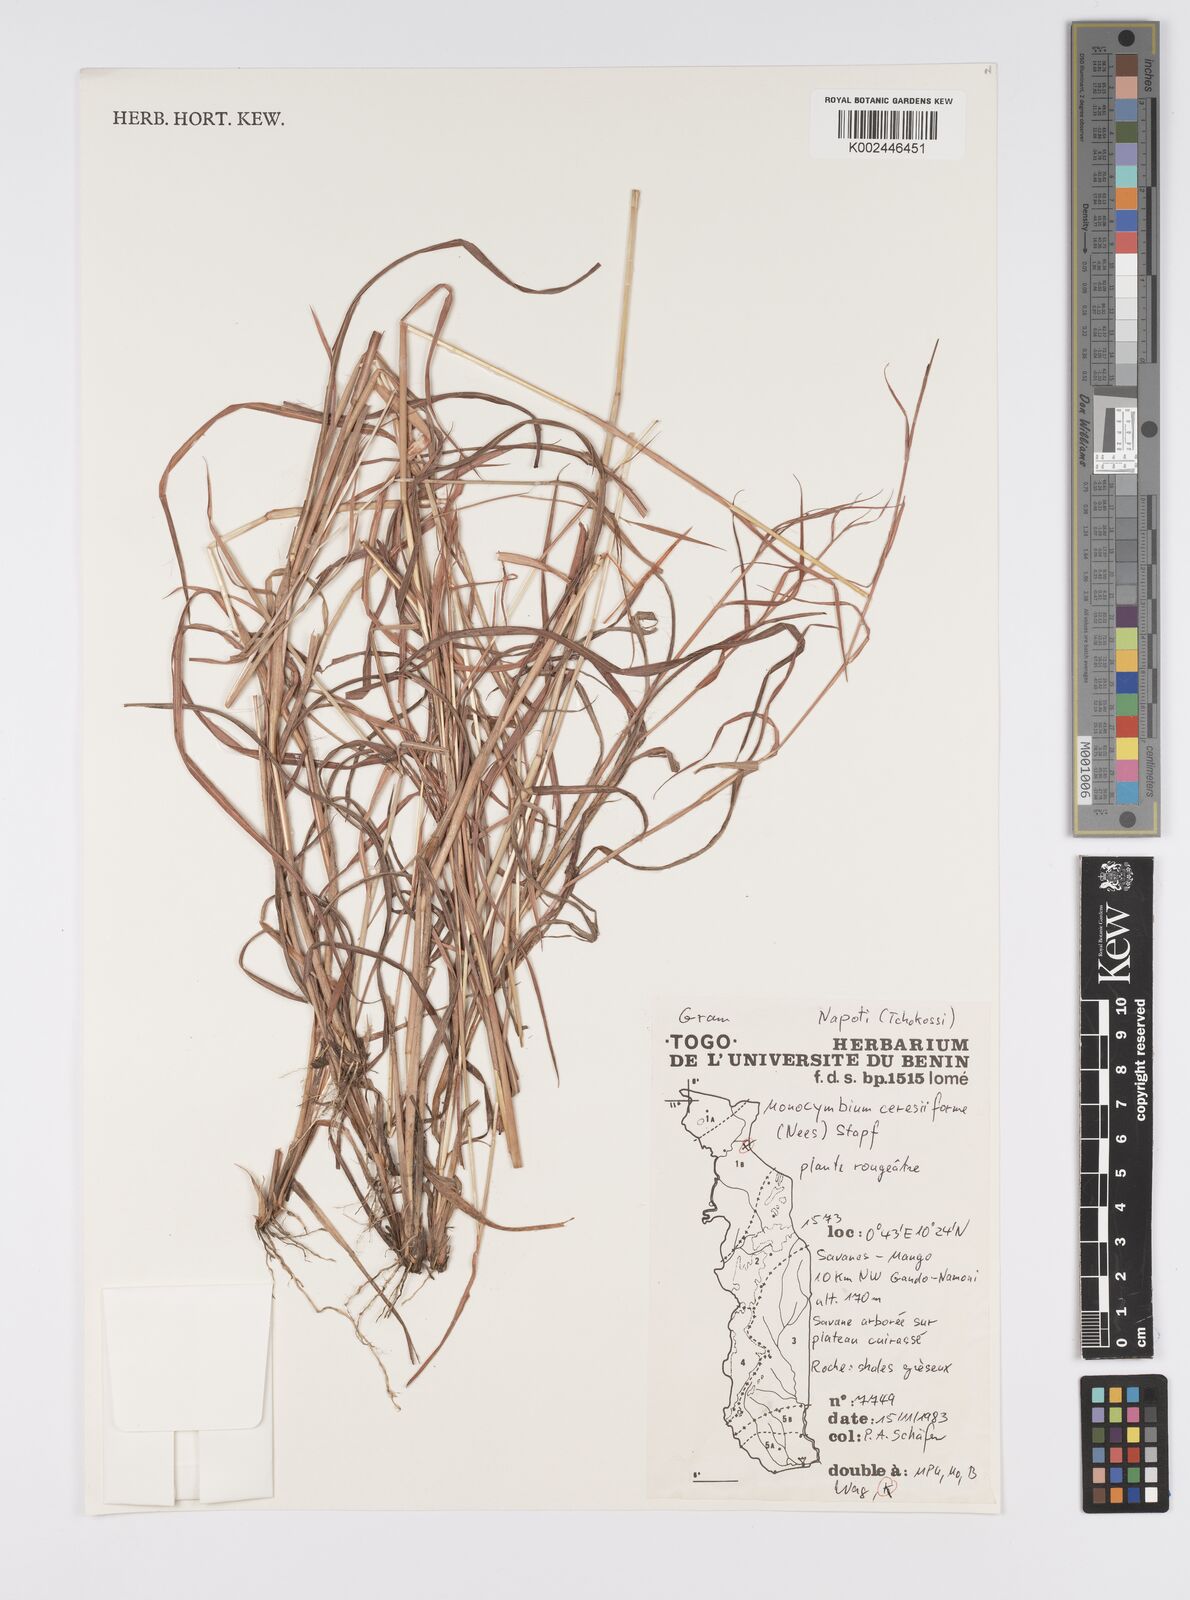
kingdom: Plantae
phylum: Tracheophyta
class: Liliopsida
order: Poales
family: Poaceae
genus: Monocymbium
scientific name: Monocymbium ceresiiforme
